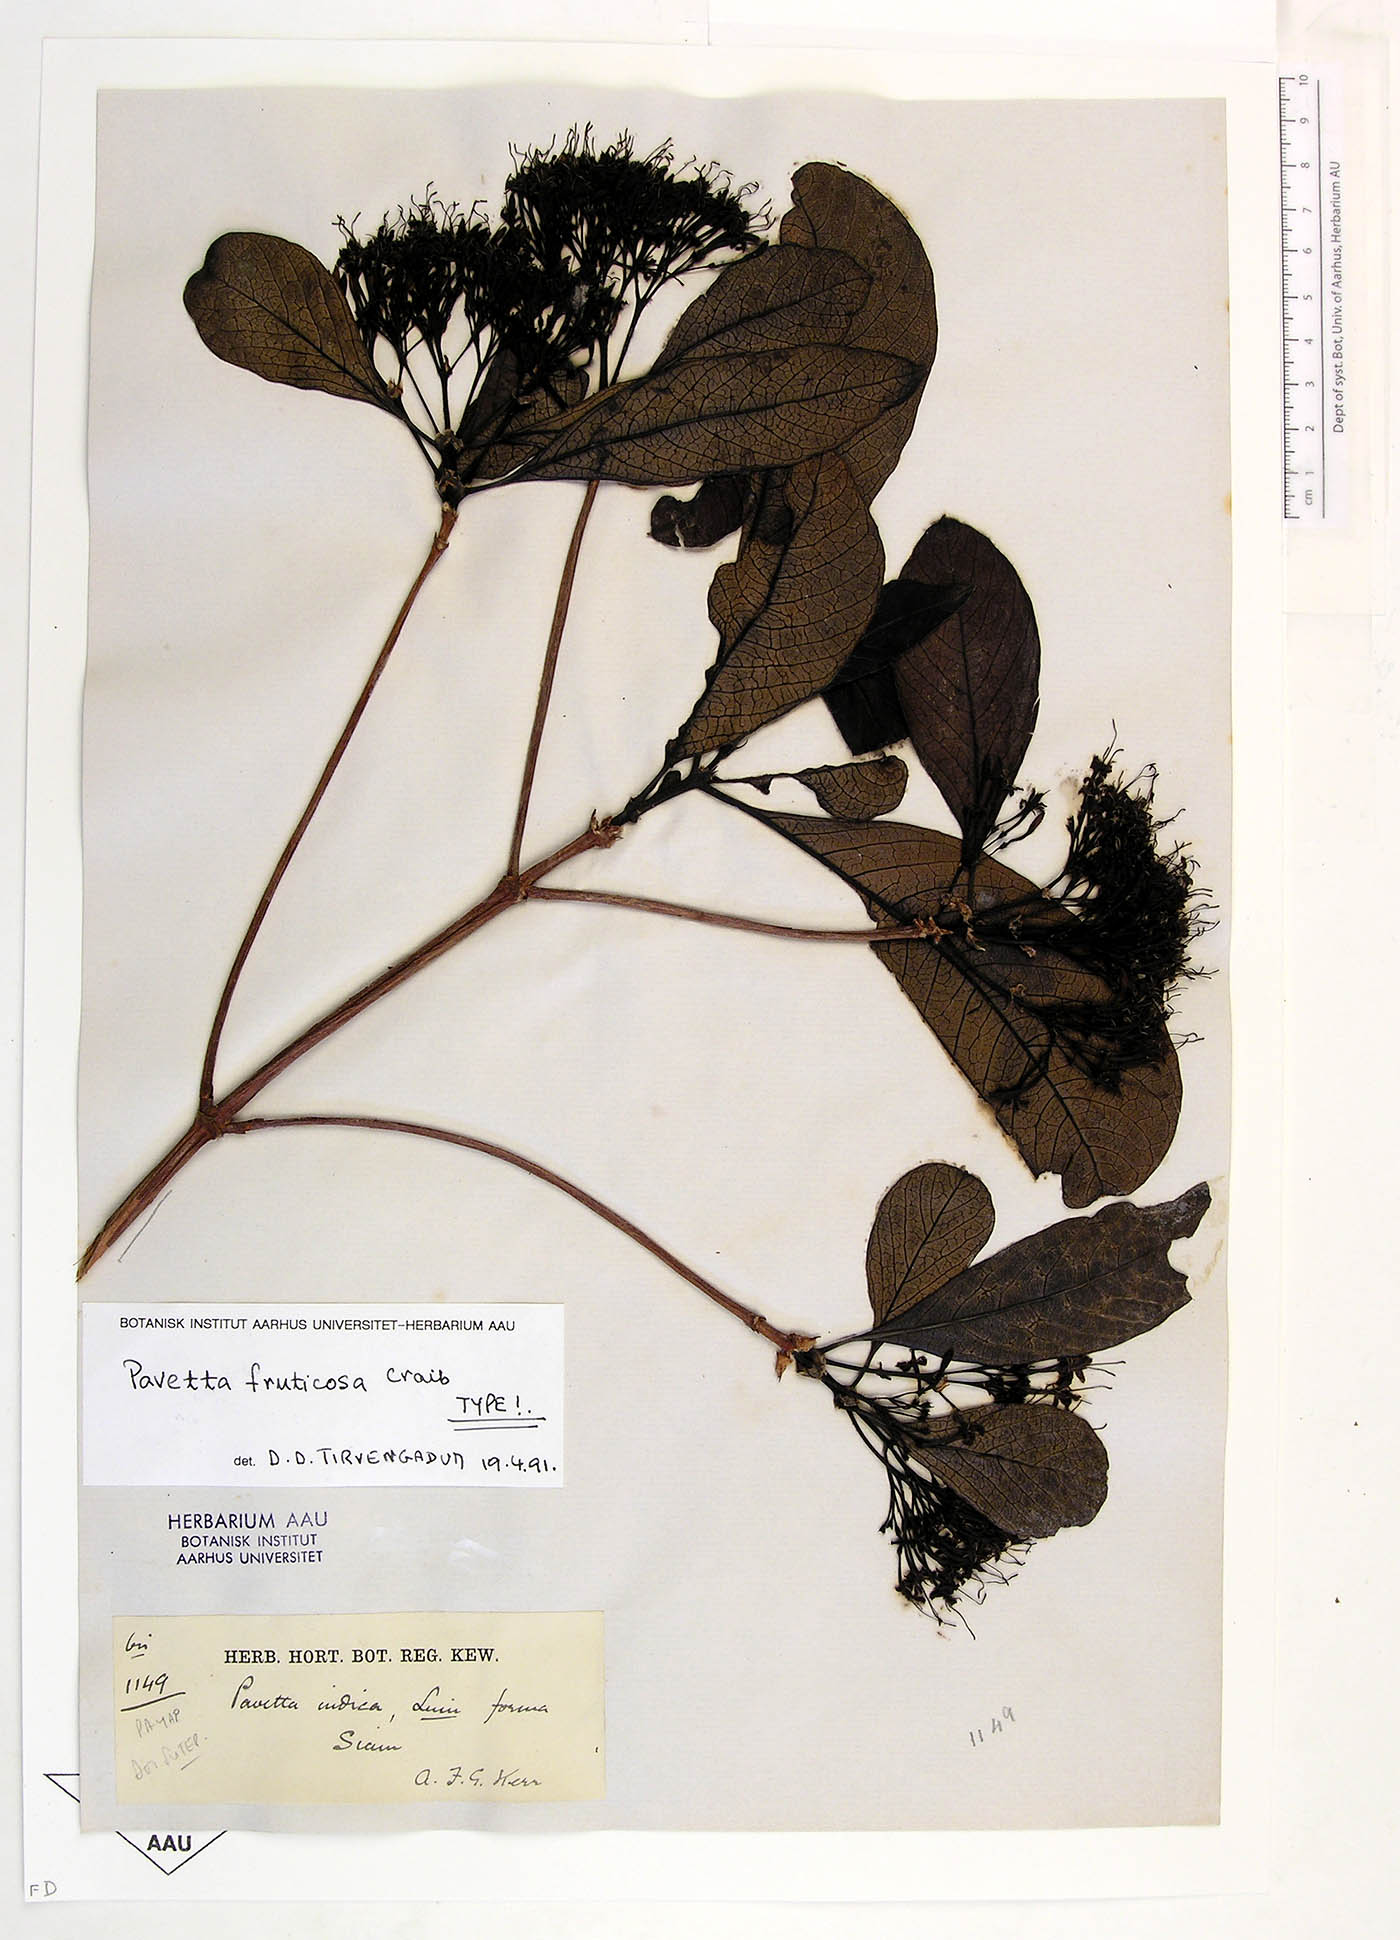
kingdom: Plantae
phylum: Tracheophyta
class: Magnoliopsida
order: Gentianales
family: Rubiaceae
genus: Pavetta
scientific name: Pavetta fruticosa
